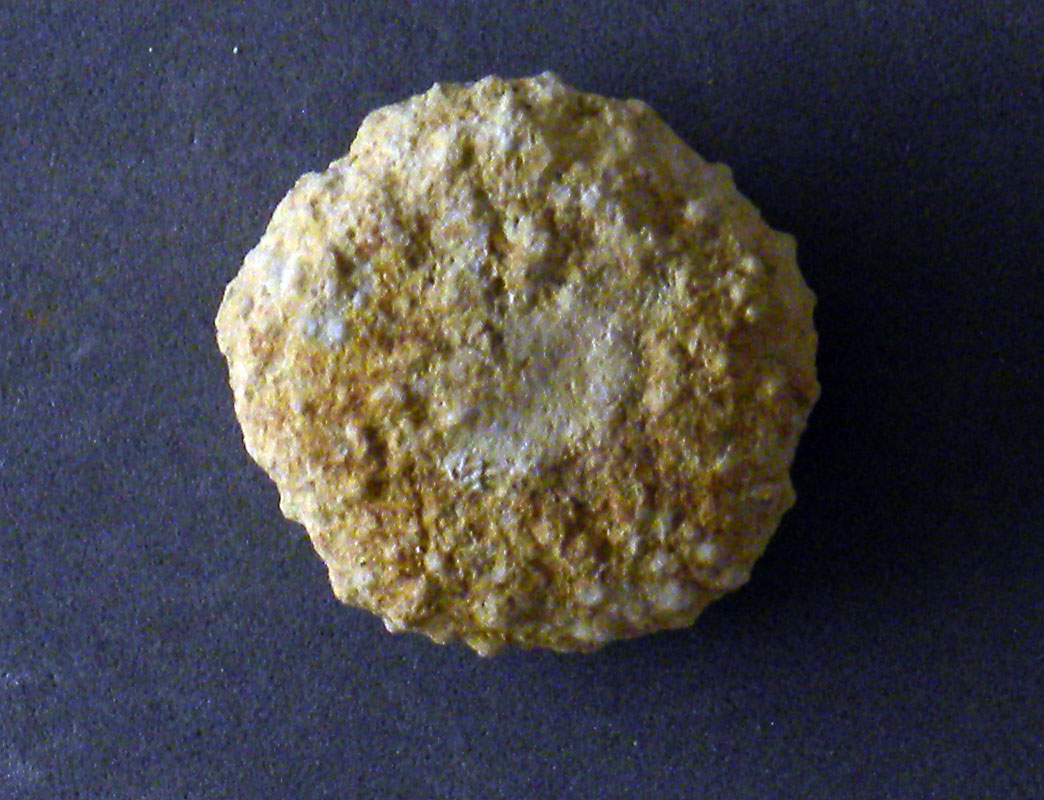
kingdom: Animalia
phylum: Echinodermata
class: Echinoidea
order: Cidaroida
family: Cidaridae
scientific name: Cidaridae
